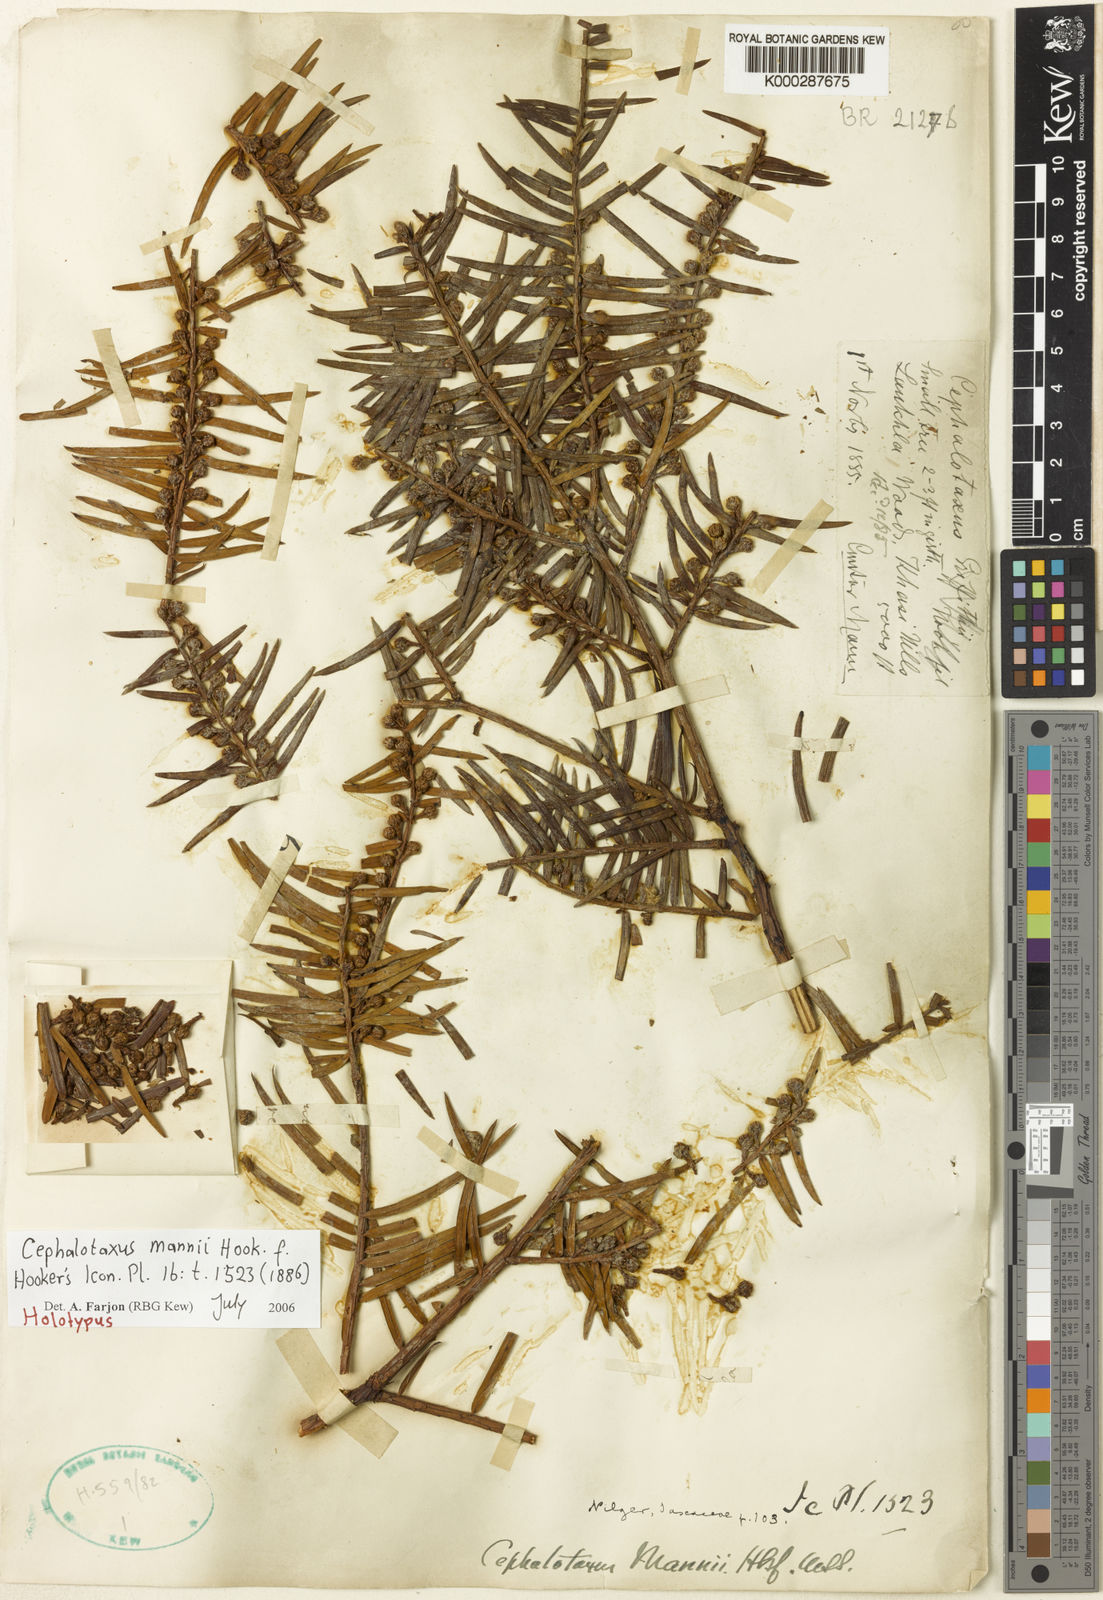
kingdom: Plantae
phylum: Tracheophyta
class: Pinopsida
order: Pinales
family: Cephalotaxaceae
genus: Cephalotaxus
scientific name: Cephalotaxus mannii
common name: Mann's yew plum
